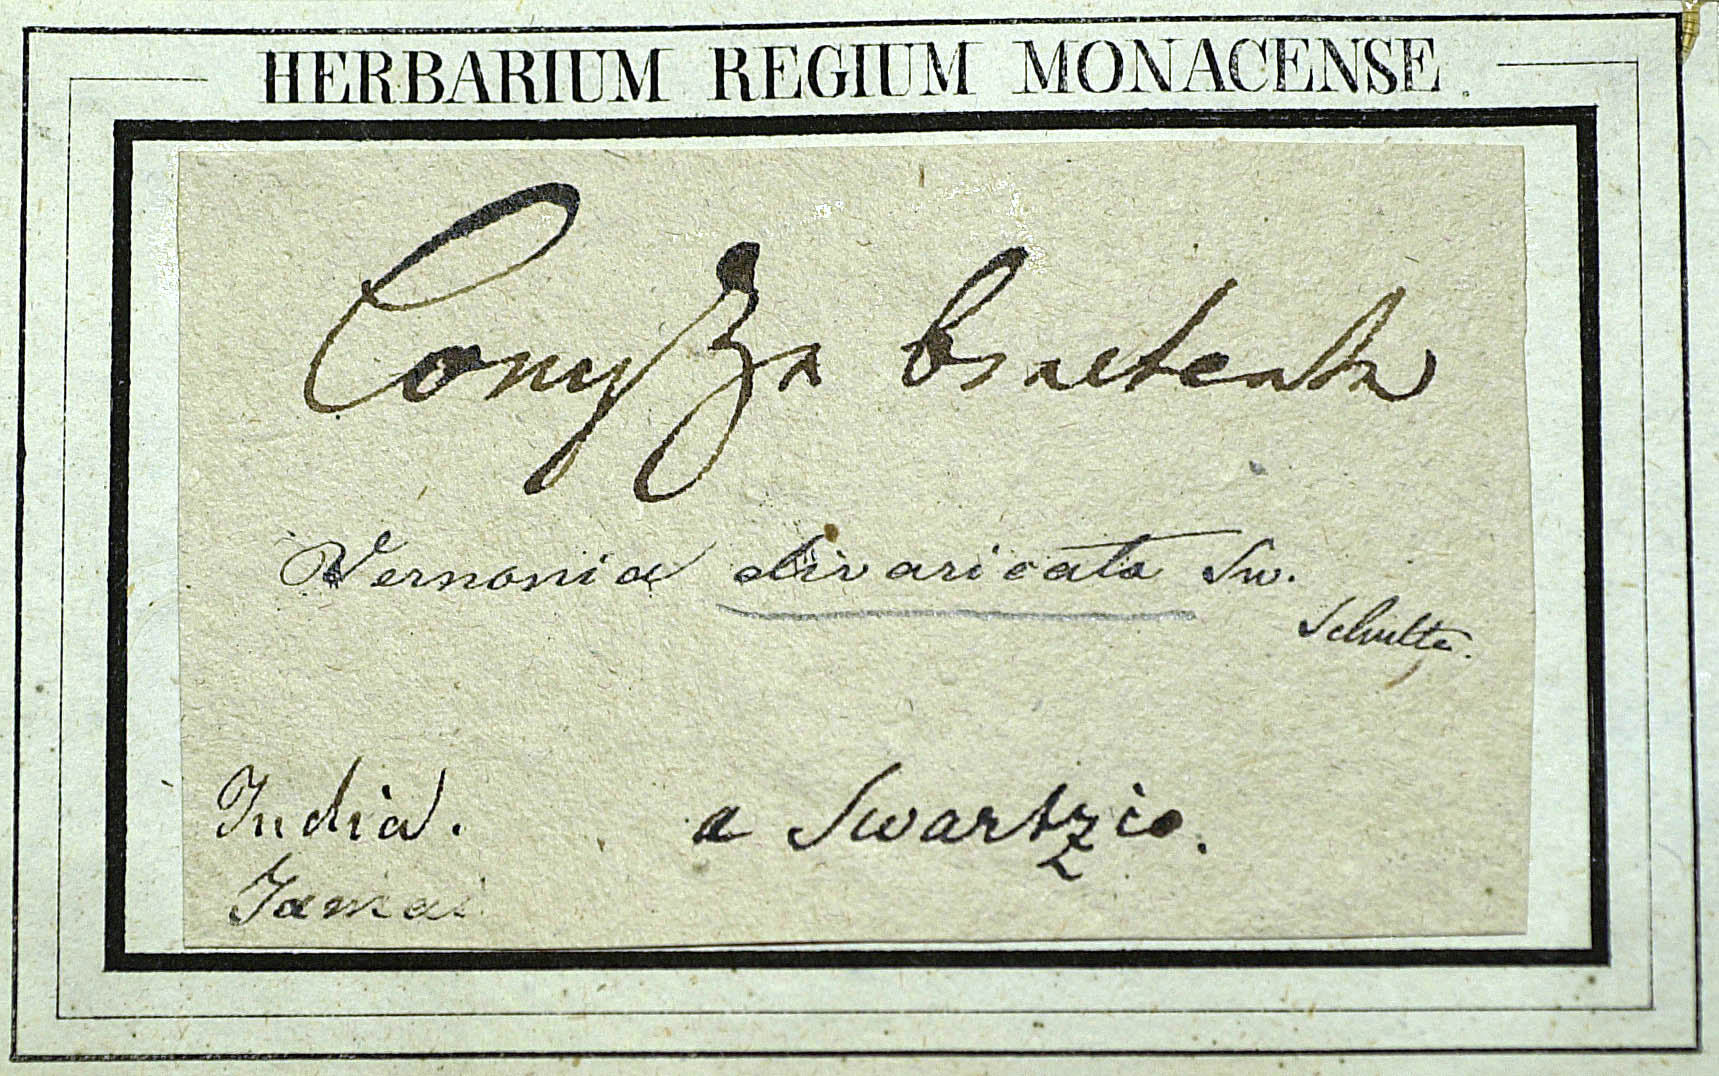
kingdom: Plantae
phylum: Tracheophyta
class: Magnoliopsida
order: Asterales
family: Asteraceae
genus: Lepidaploa
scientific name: Lepidaploa arborescens
